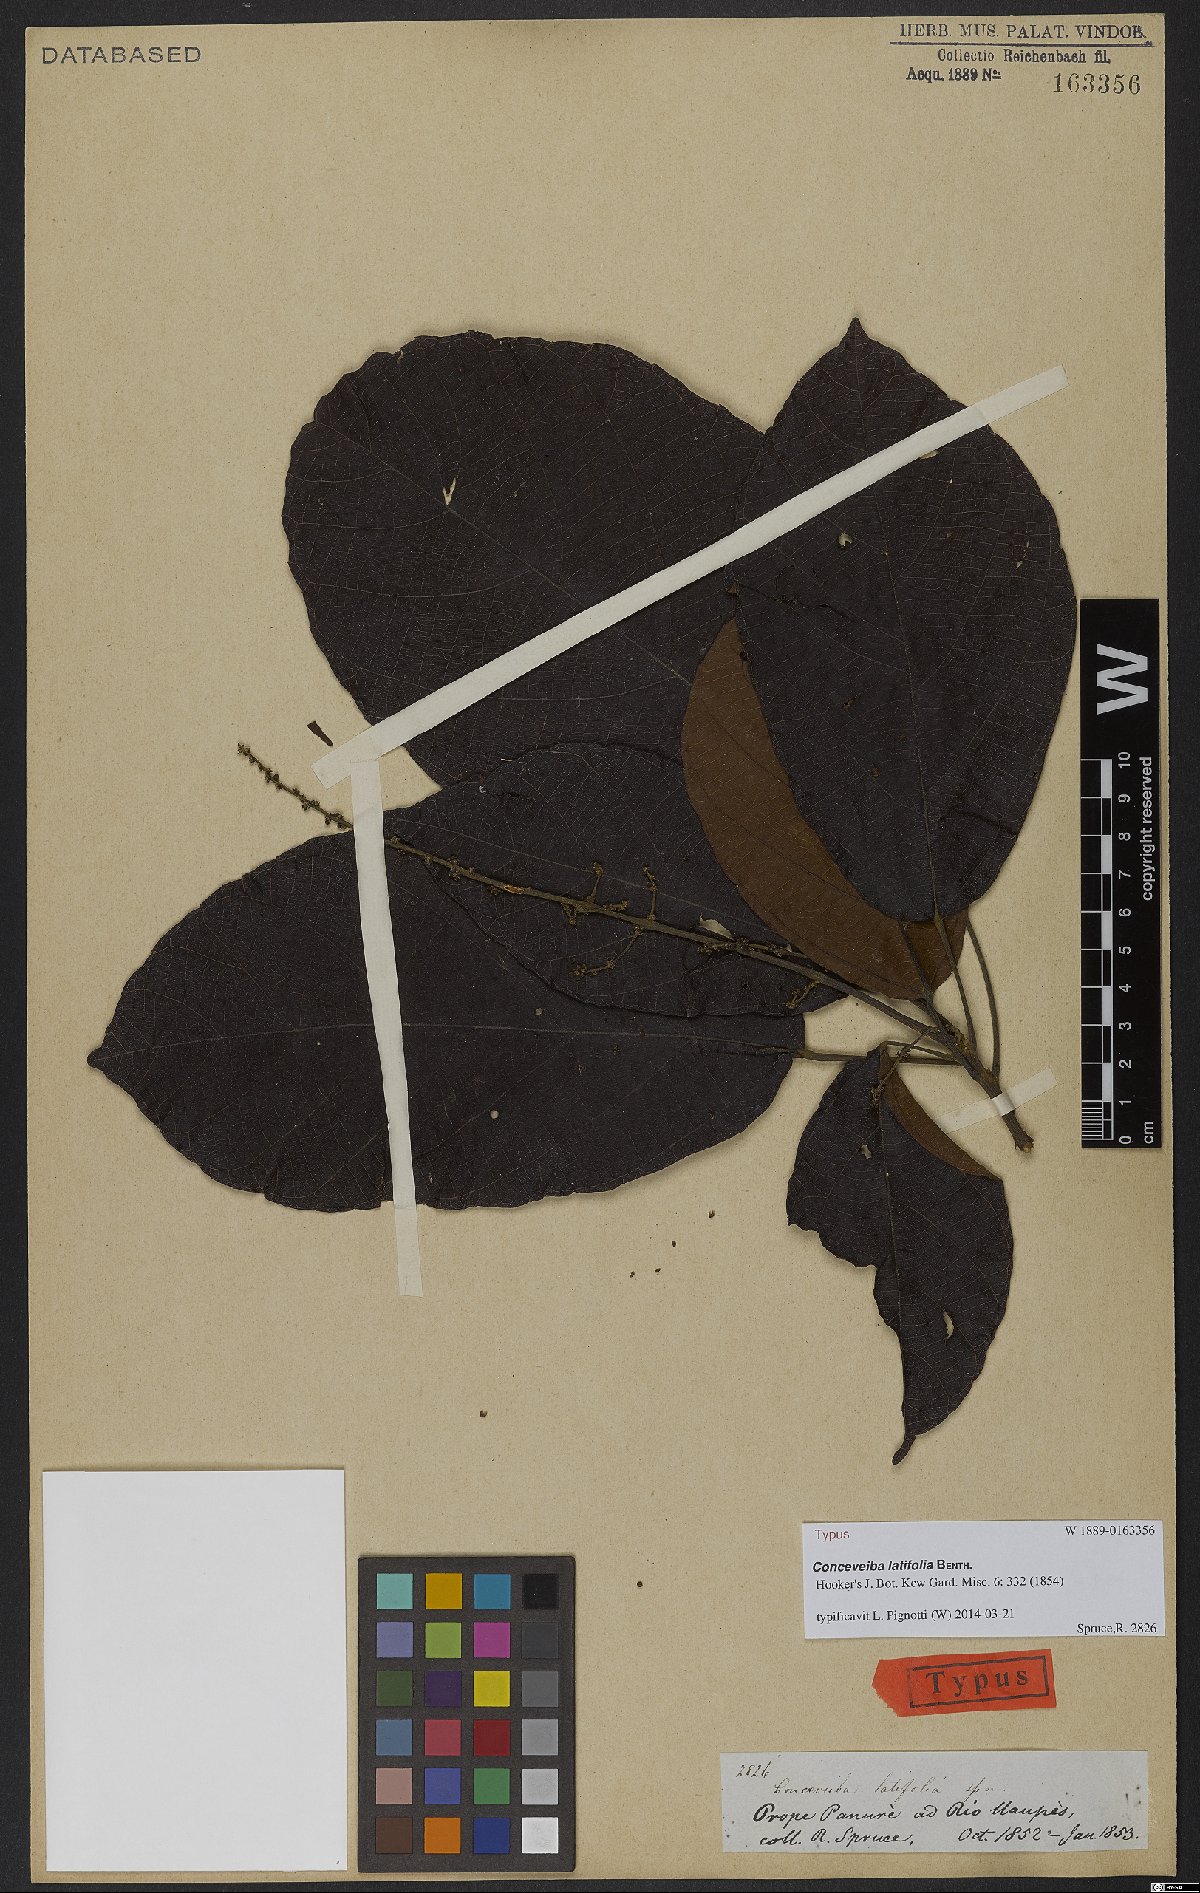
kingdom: Plantae
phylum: Tracheophyta
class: Magnoliopsida
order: Malpighiales
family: Euphorbiaceae
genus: Conceveiba
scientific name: Conceveiba latifolia
